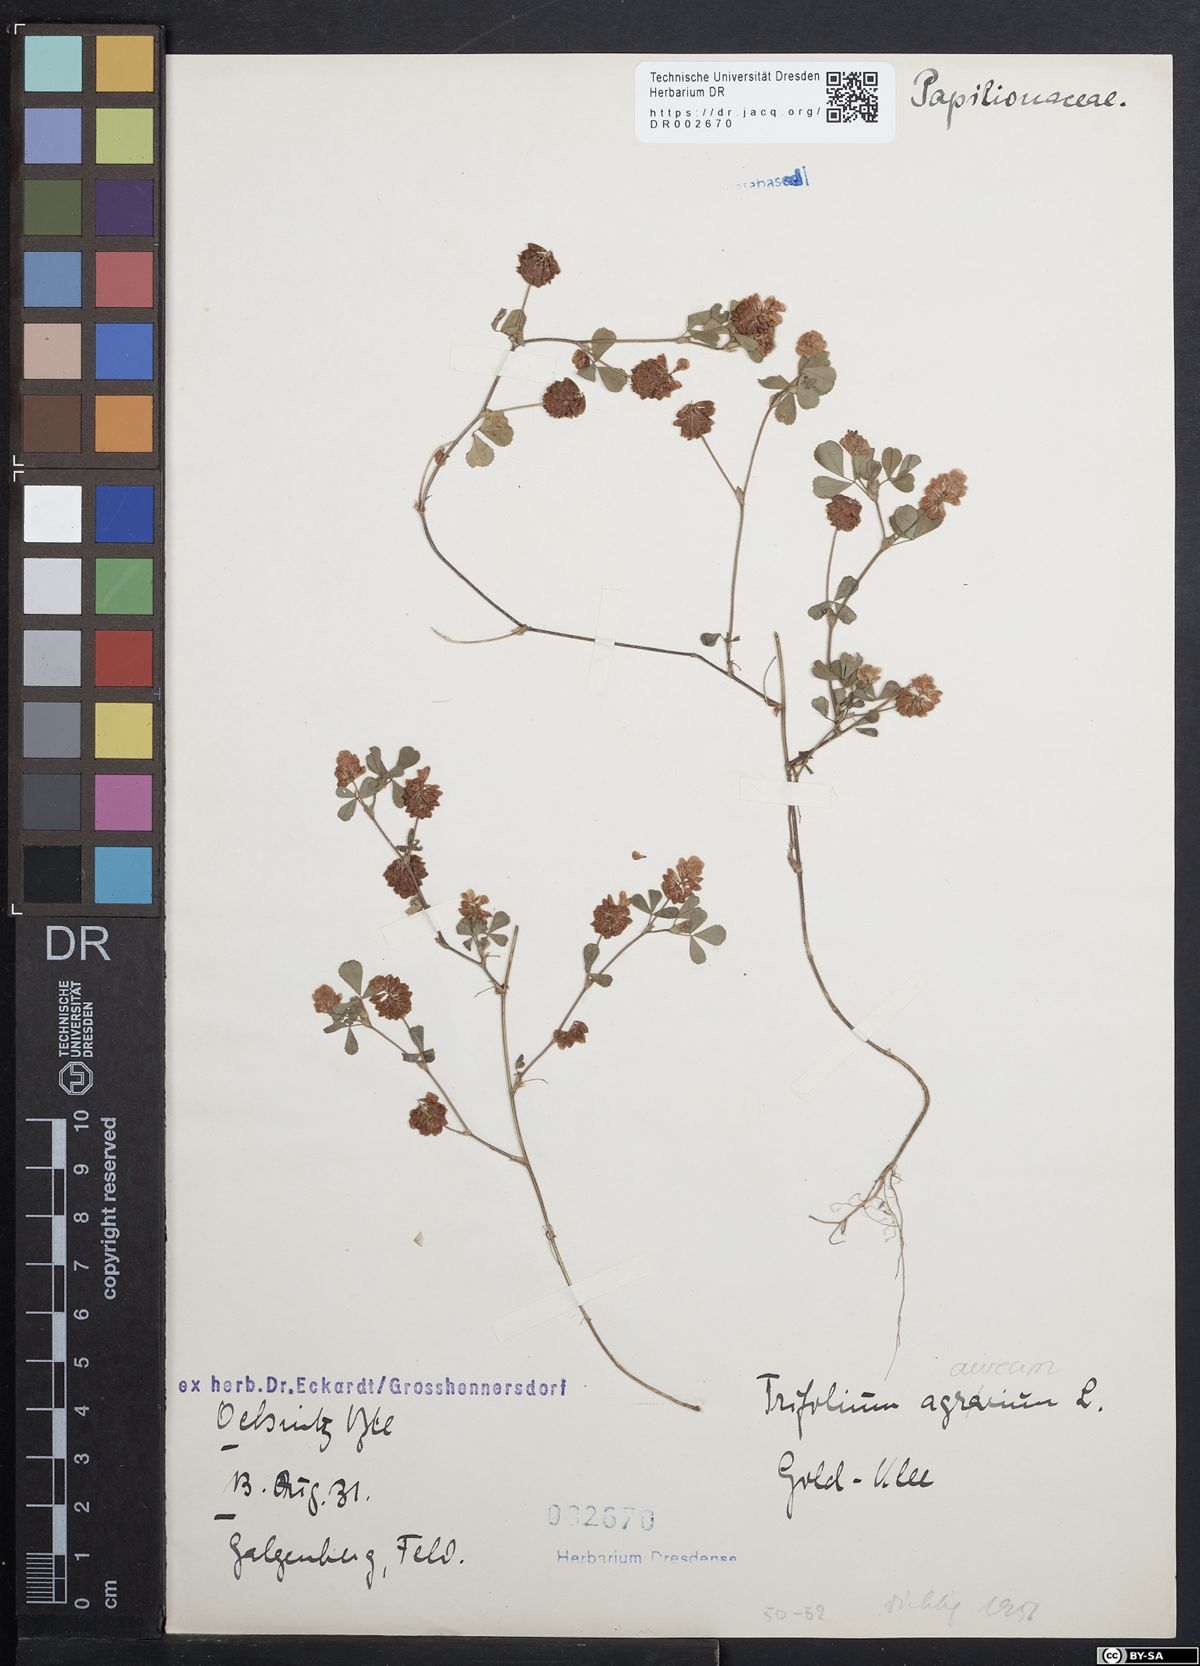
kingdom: Plantae
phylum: Tracheophyta
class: Magnoliopsida
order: Fabales
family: Fabaceae
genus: Trifolium
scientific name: Trifolium campestre
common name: Field clover
